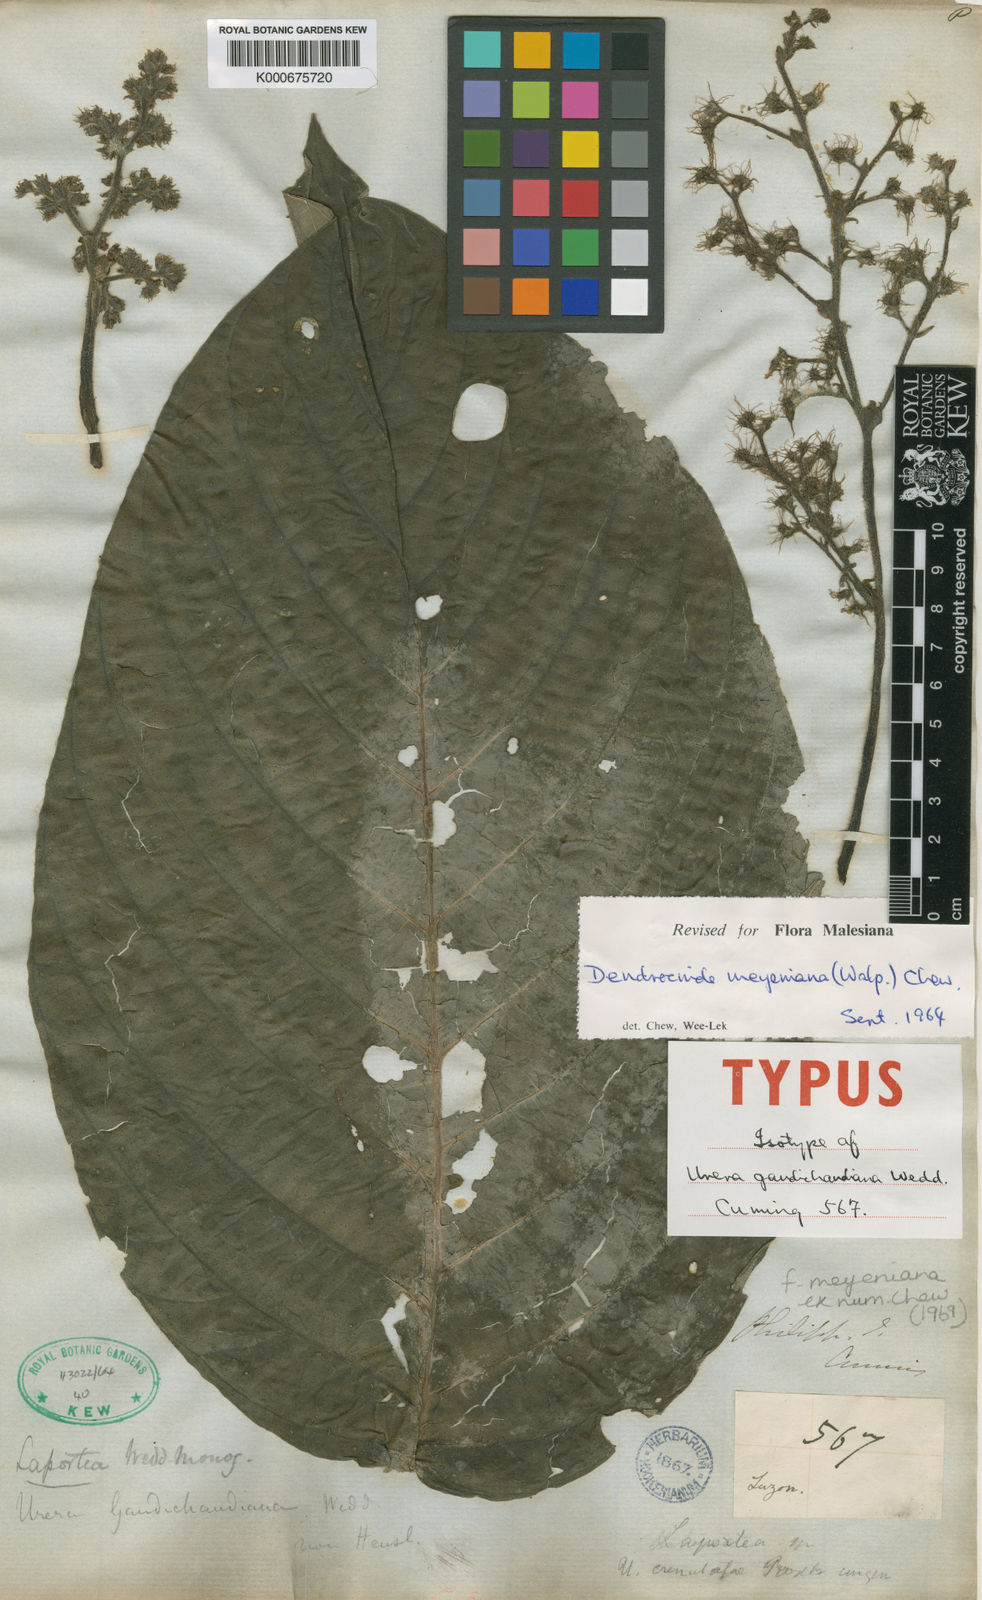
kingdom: Plantae
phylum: Tracheophyta
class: Magnoliopsida
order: Rosales
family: Urticaceae
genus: Dendrocnide
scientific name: Dendrocnide meyeniana
